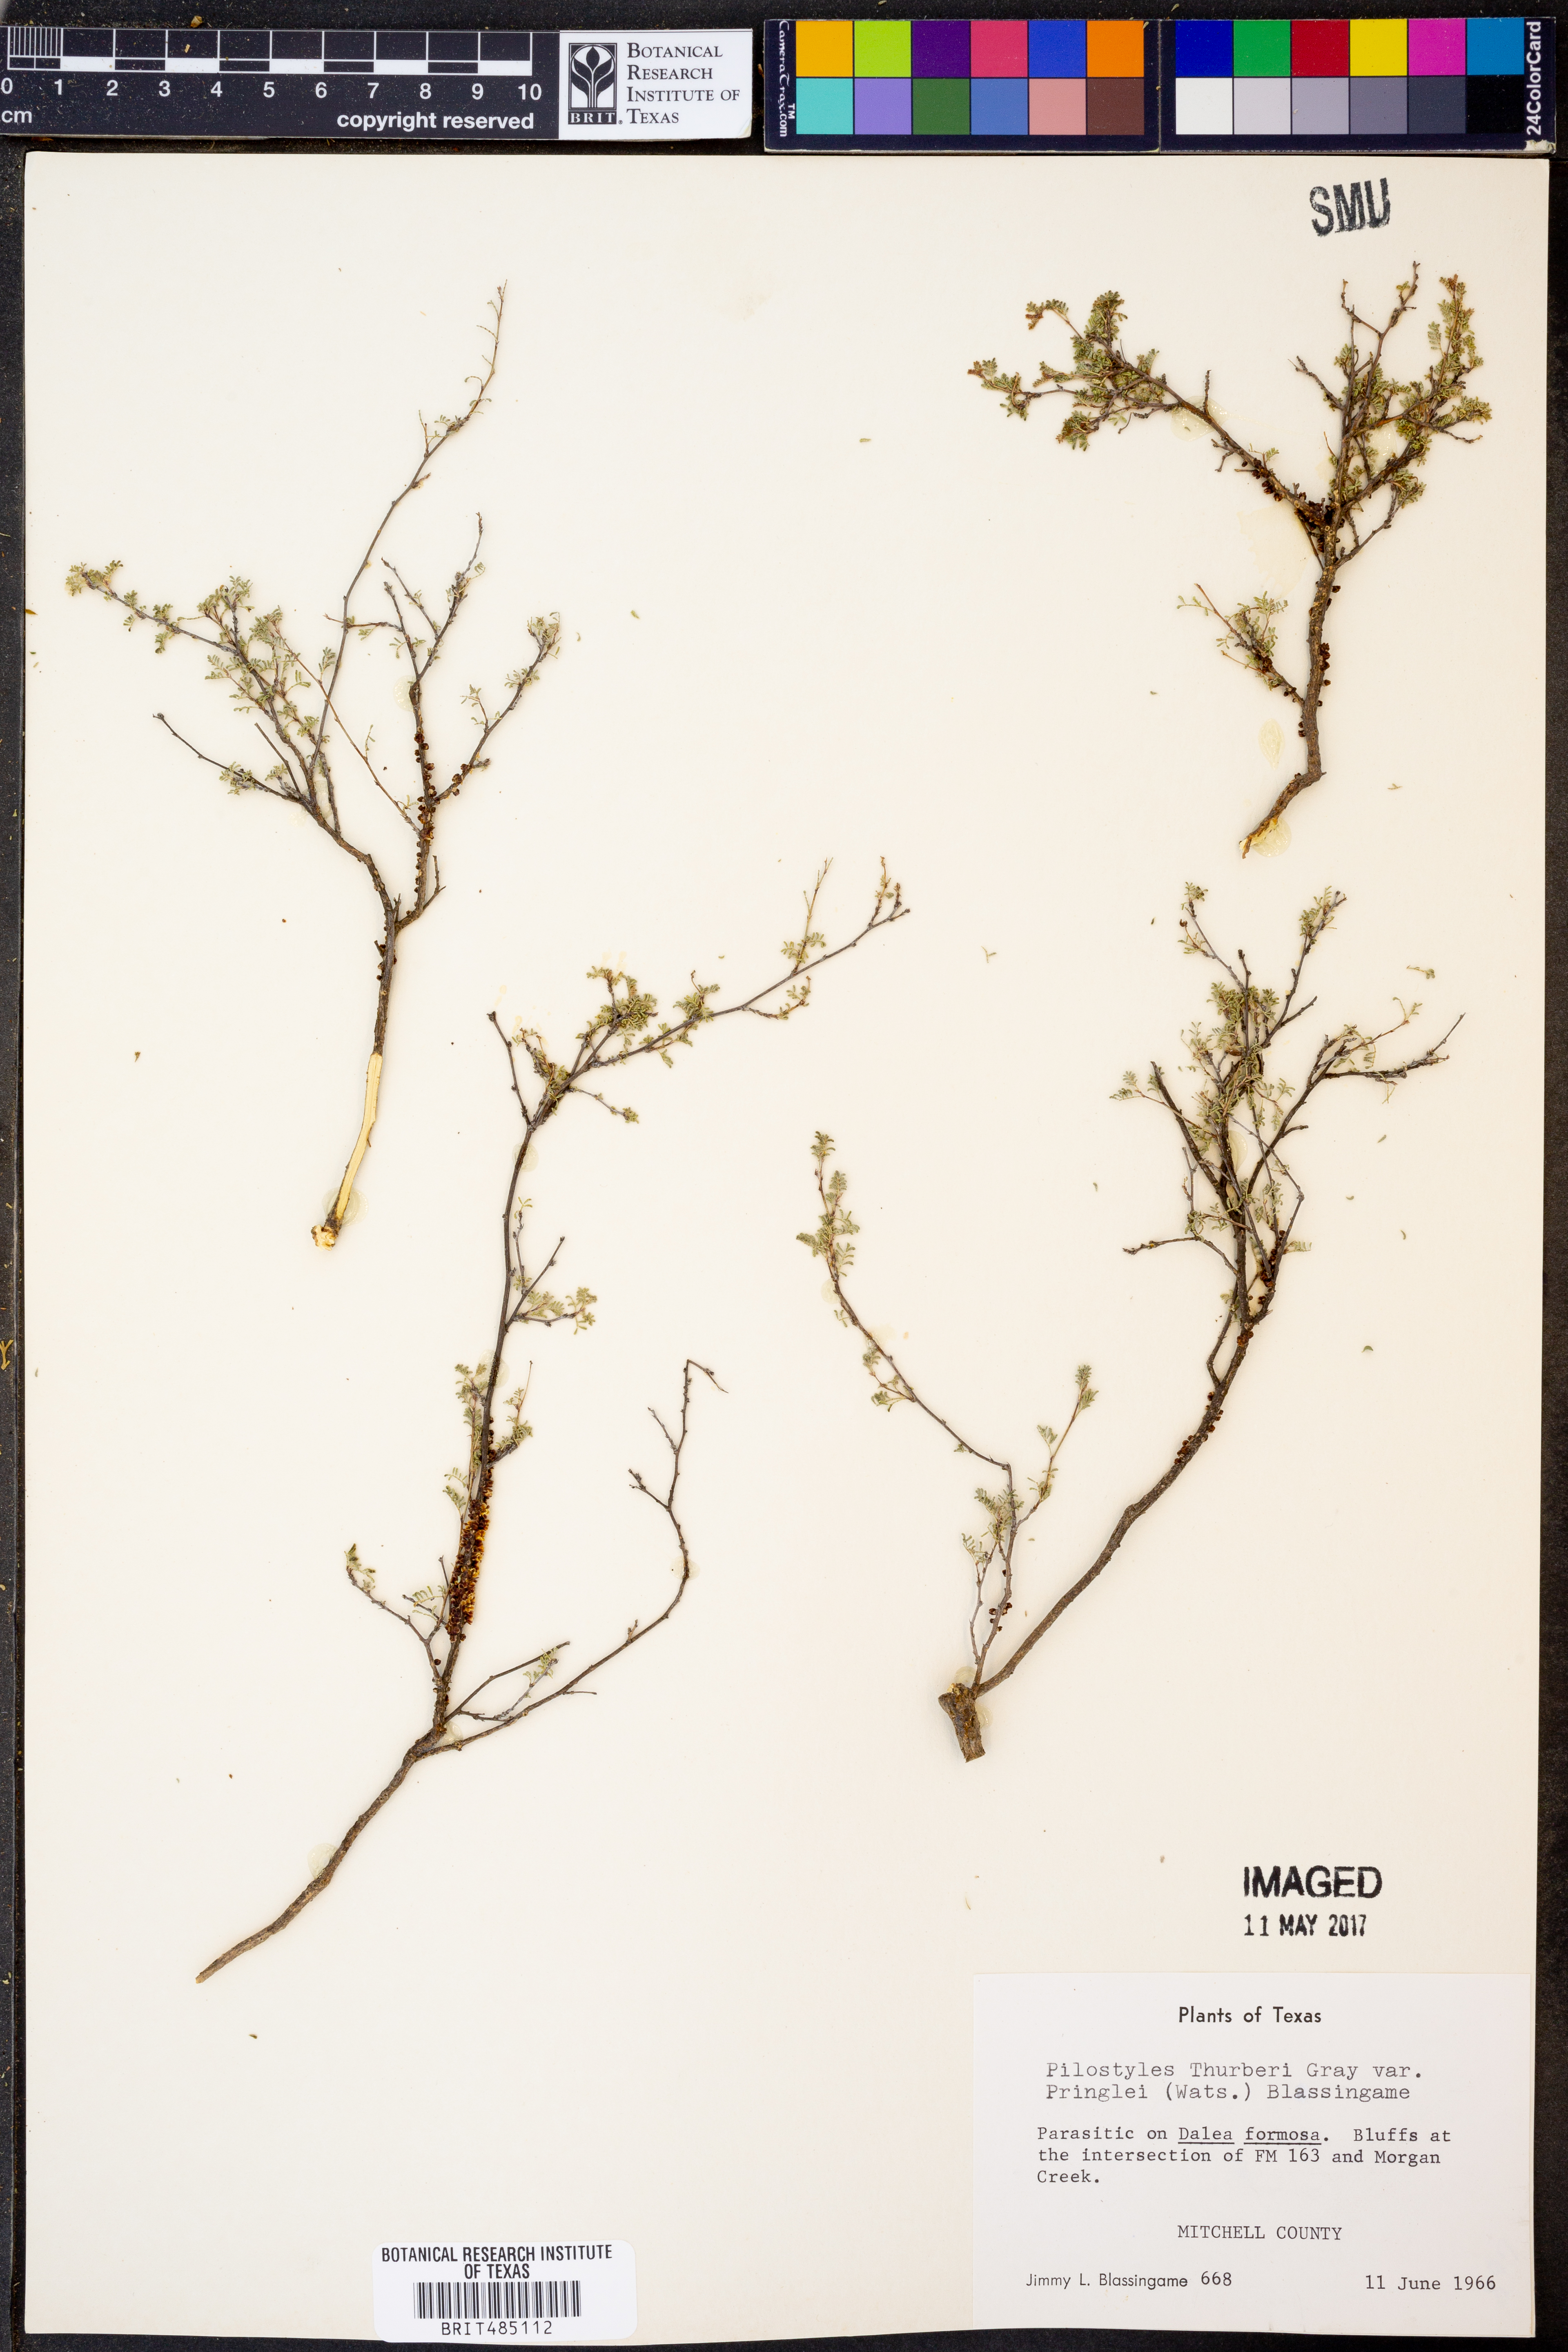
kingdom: Plantae
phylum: Tracheophyta
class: Magnoliopsida
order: Cucurbitales
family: Apodanthaceae
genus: Pilostyles
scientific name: Pilostyles thurberi
